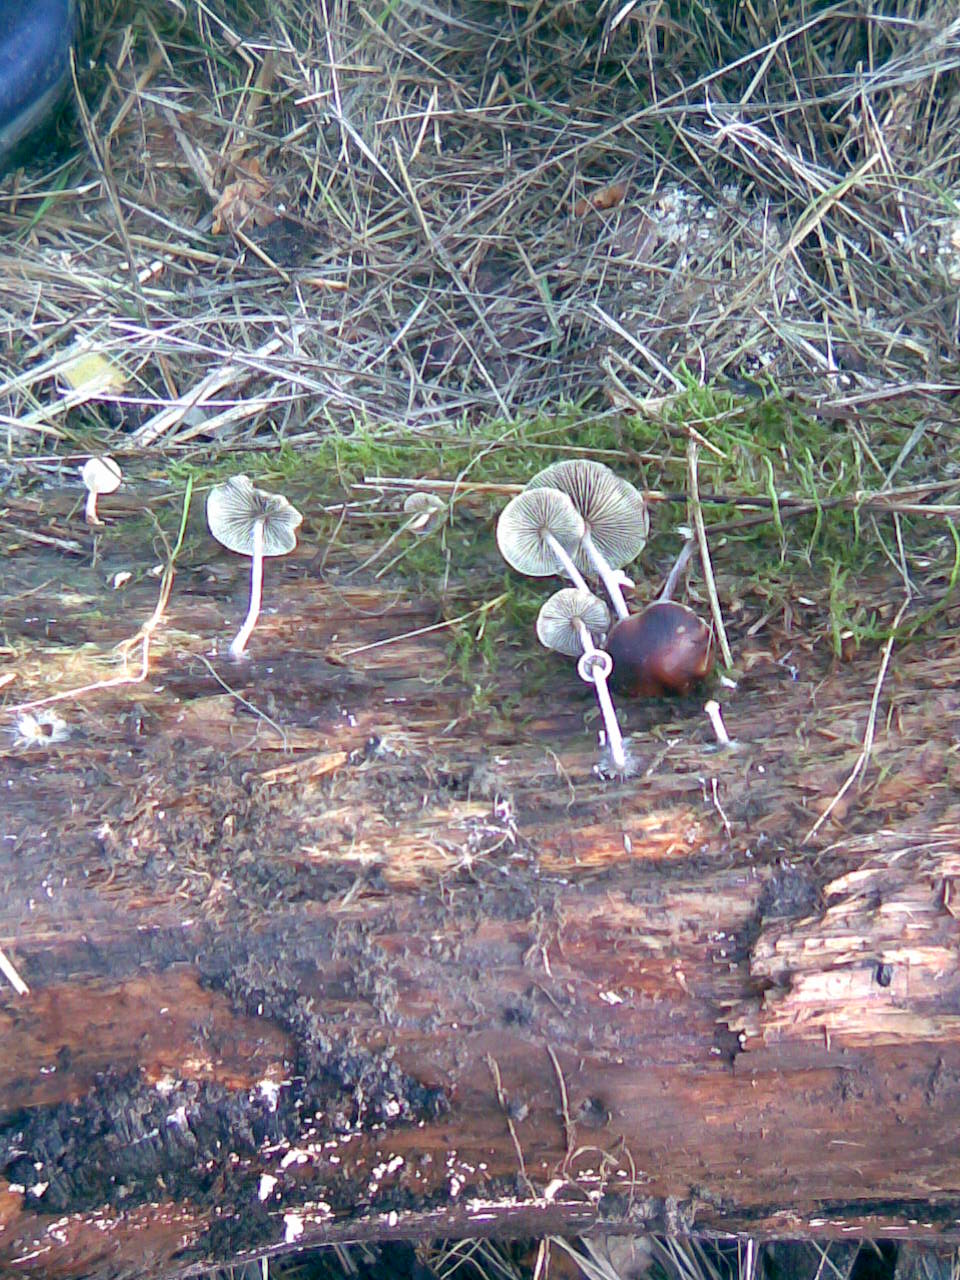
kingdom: Fungi
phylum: Basidiomycota
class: Agaricomycetes
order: Agaricales
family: Strophariaceae
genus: Hypholoma
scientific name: Hypholoma marginatum
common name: enlig svovlhat
